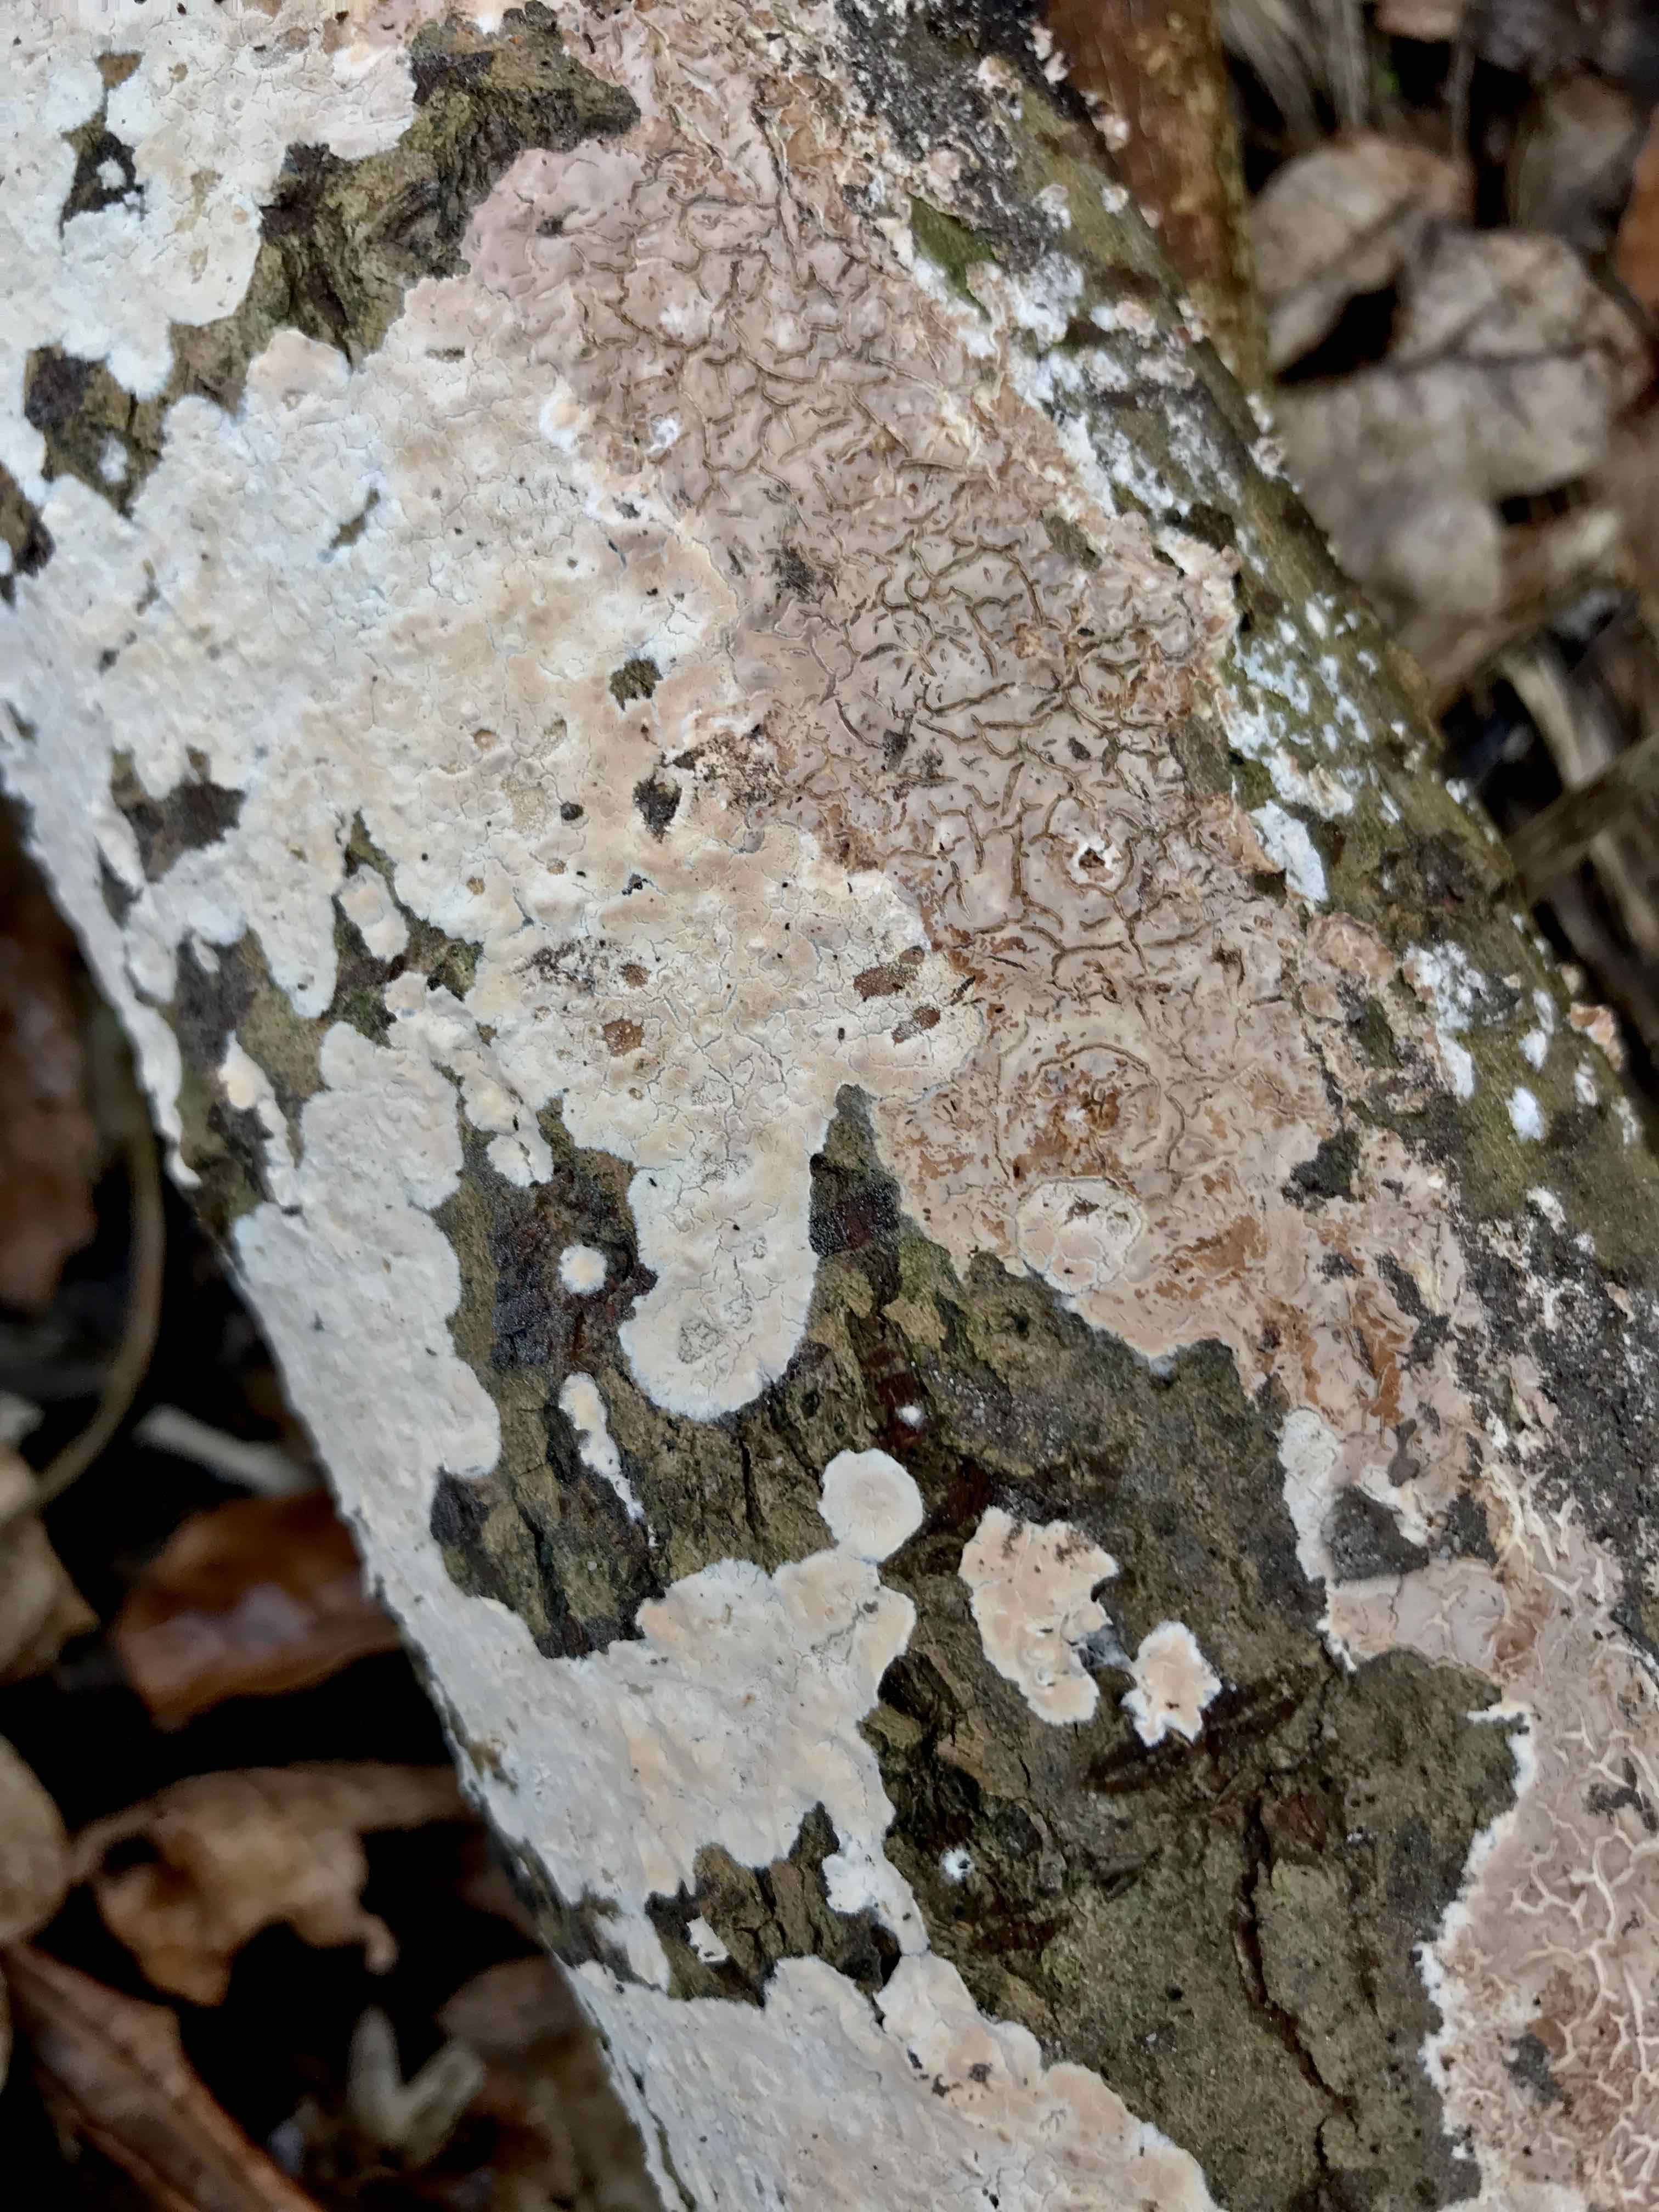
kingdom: Fungi
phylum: Basidiomycota
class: Agaricomycetes
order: Agaricales
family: Physalacriaceae
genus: Cylindrobasidium
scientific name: Cylindrobasidium evolvens
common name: sprækkehinde
